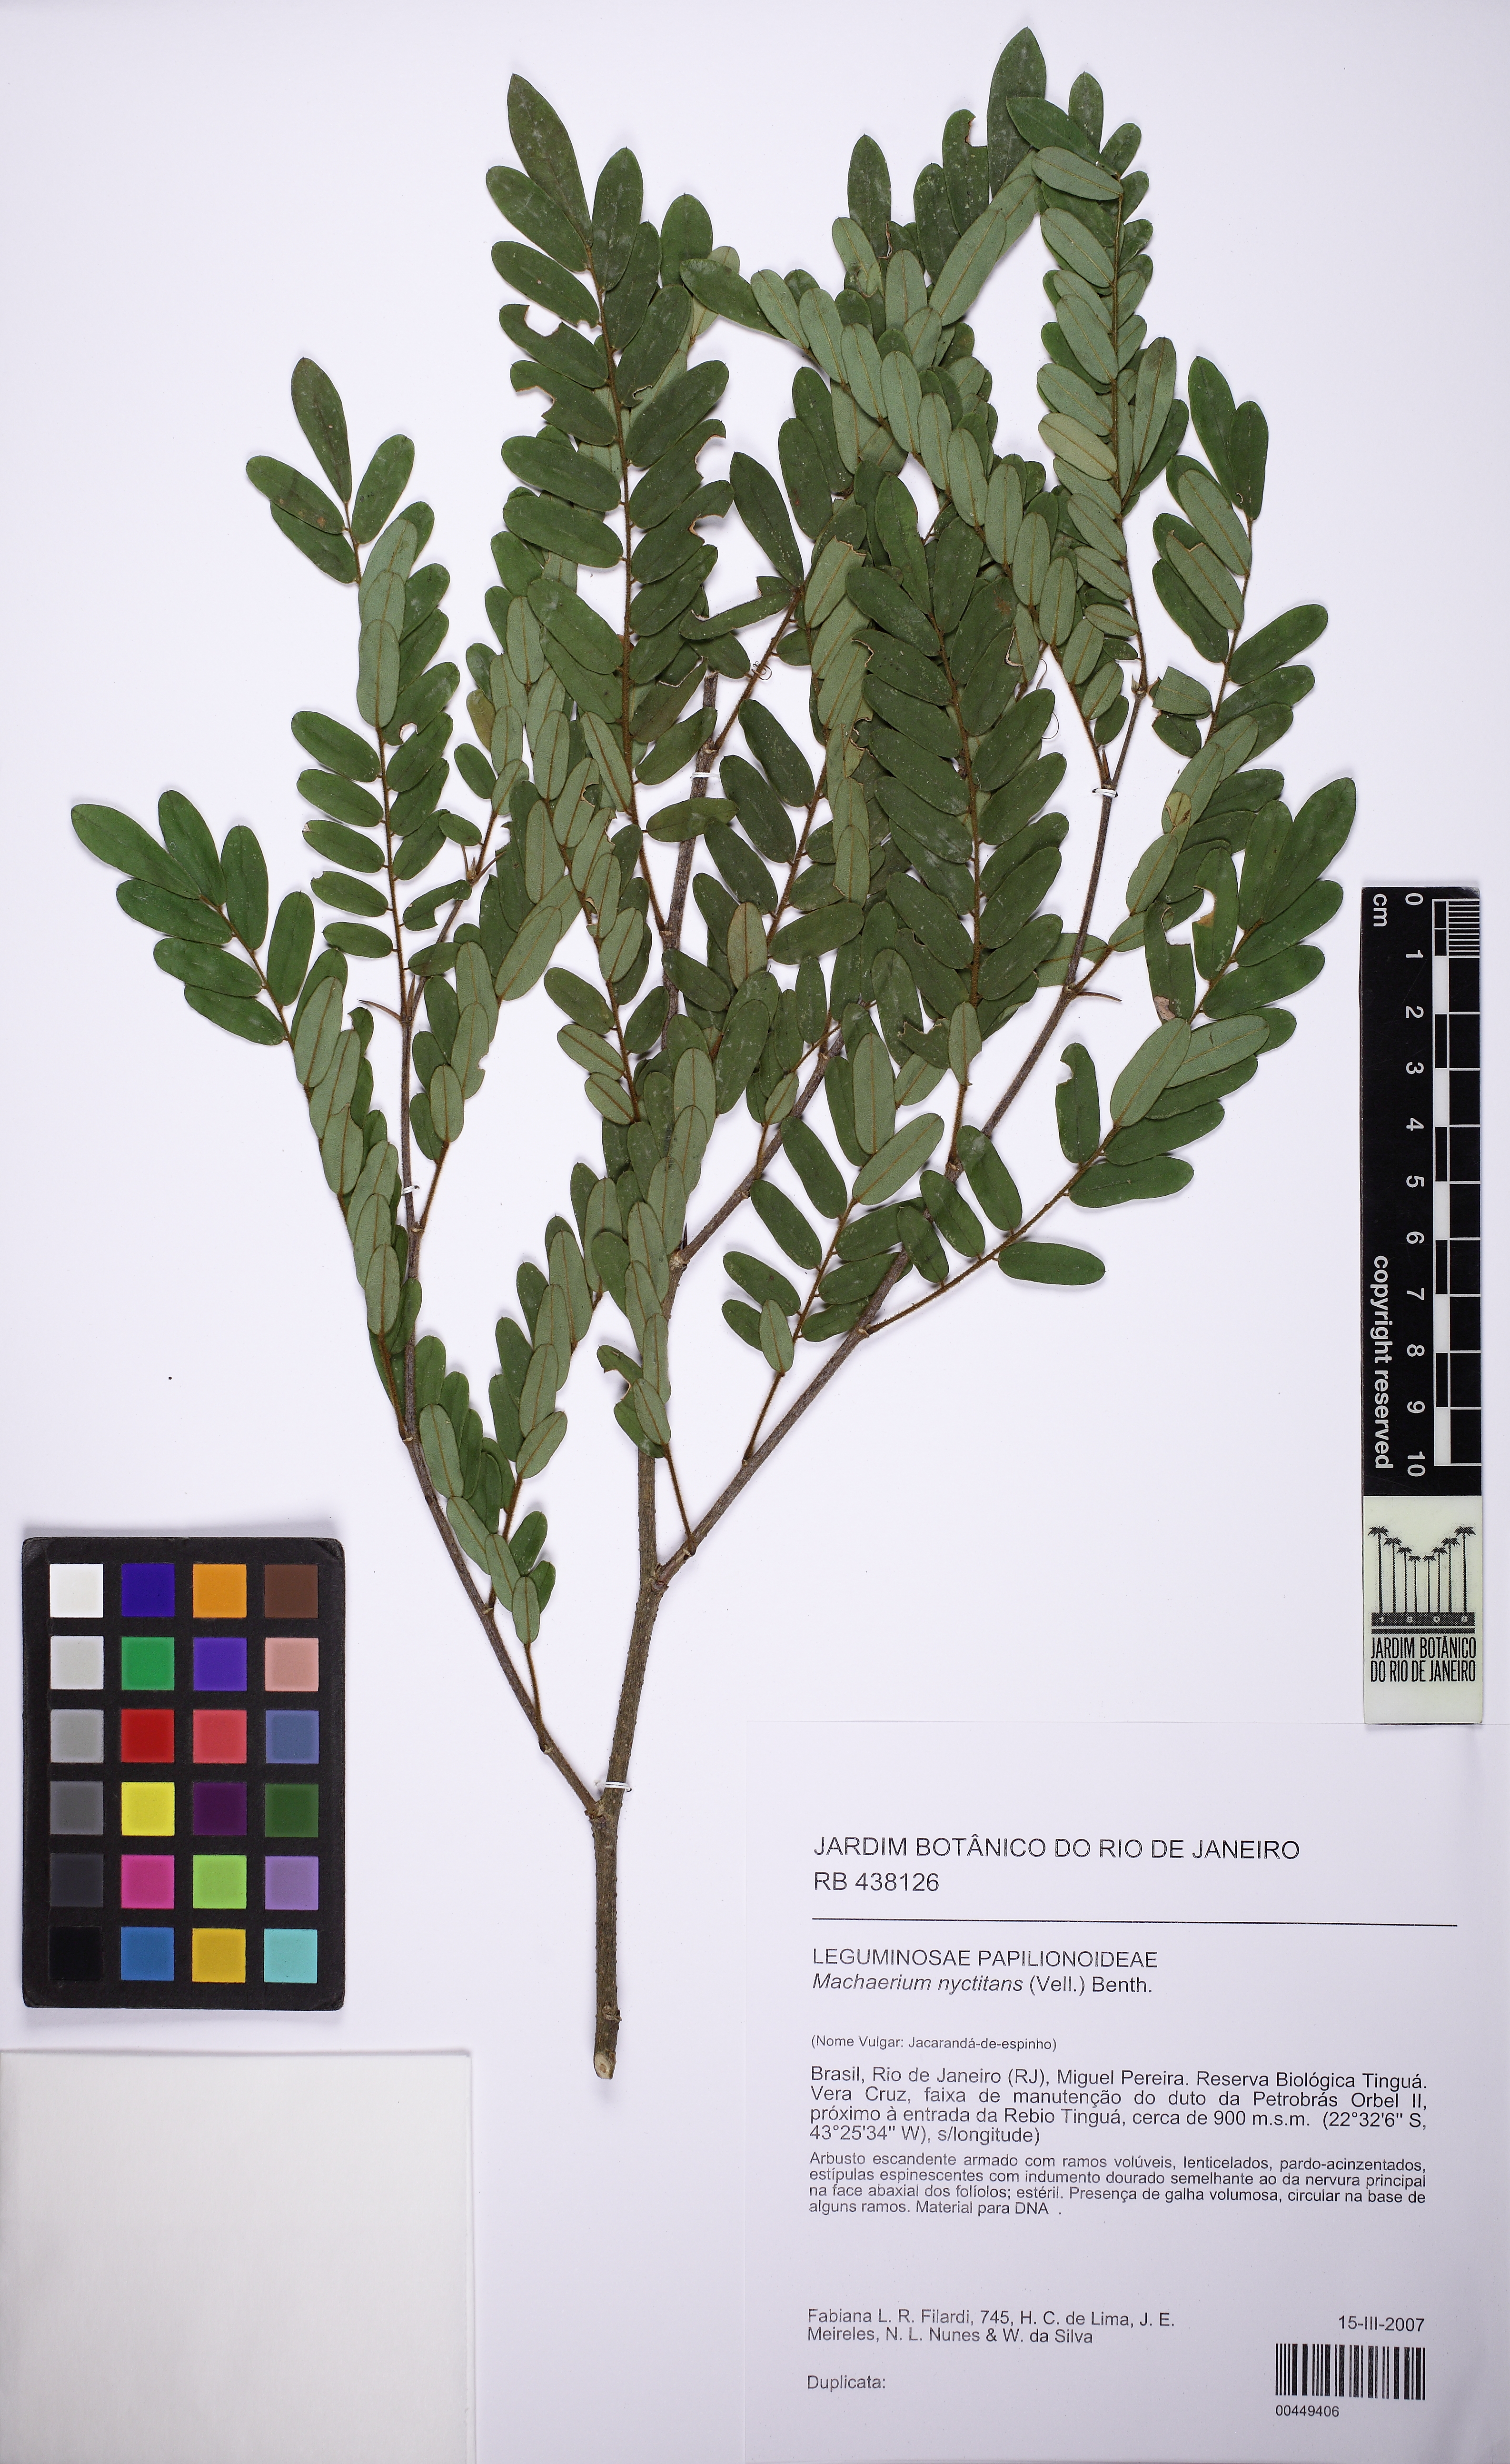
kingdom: Plantae
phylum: Tracheophyta
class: Magnoliopsida
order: Fabales
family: Fabaceae
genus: Machaerium
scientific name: Machaerium nyctitans
